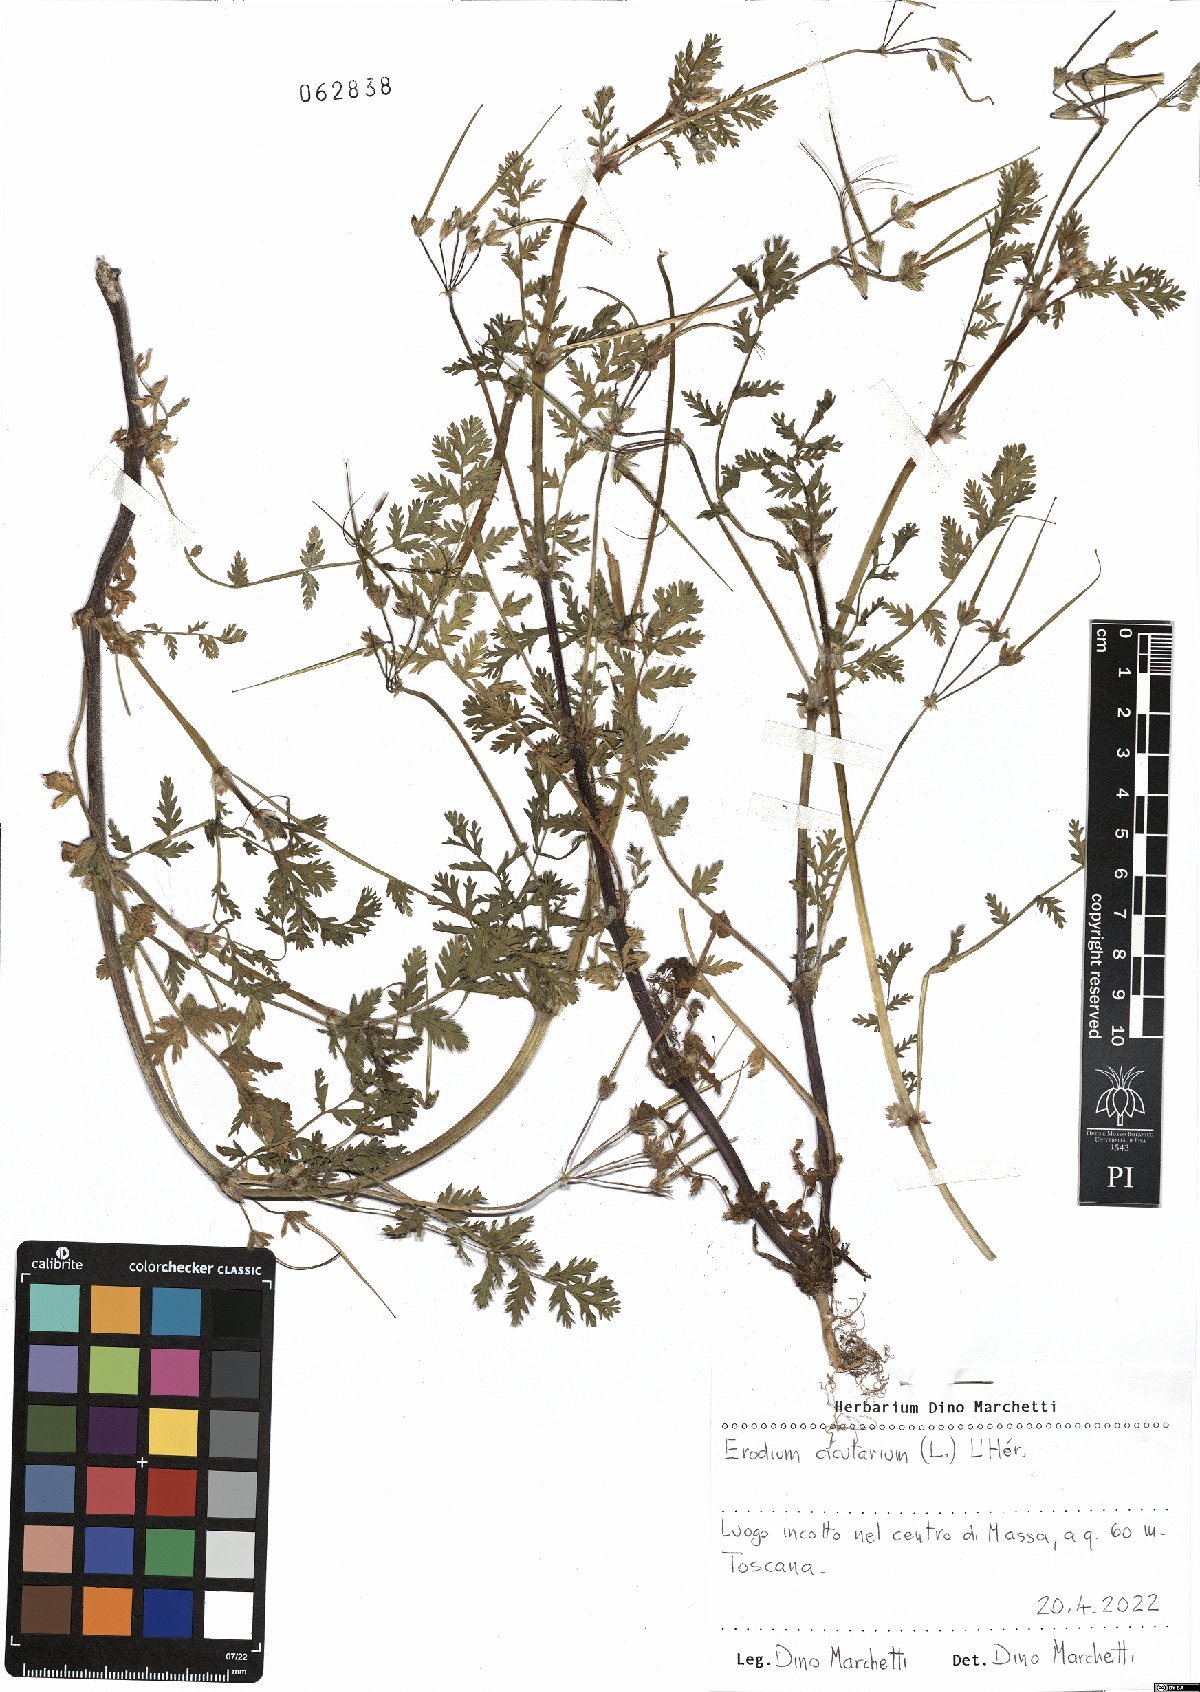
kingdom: Plantae
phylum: Tracheophyta
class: Magnoliopsida
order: Geraniales
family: Geraniaceae
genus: Erodium
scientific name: Erodium cicutarium
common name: Common stork's-bill
